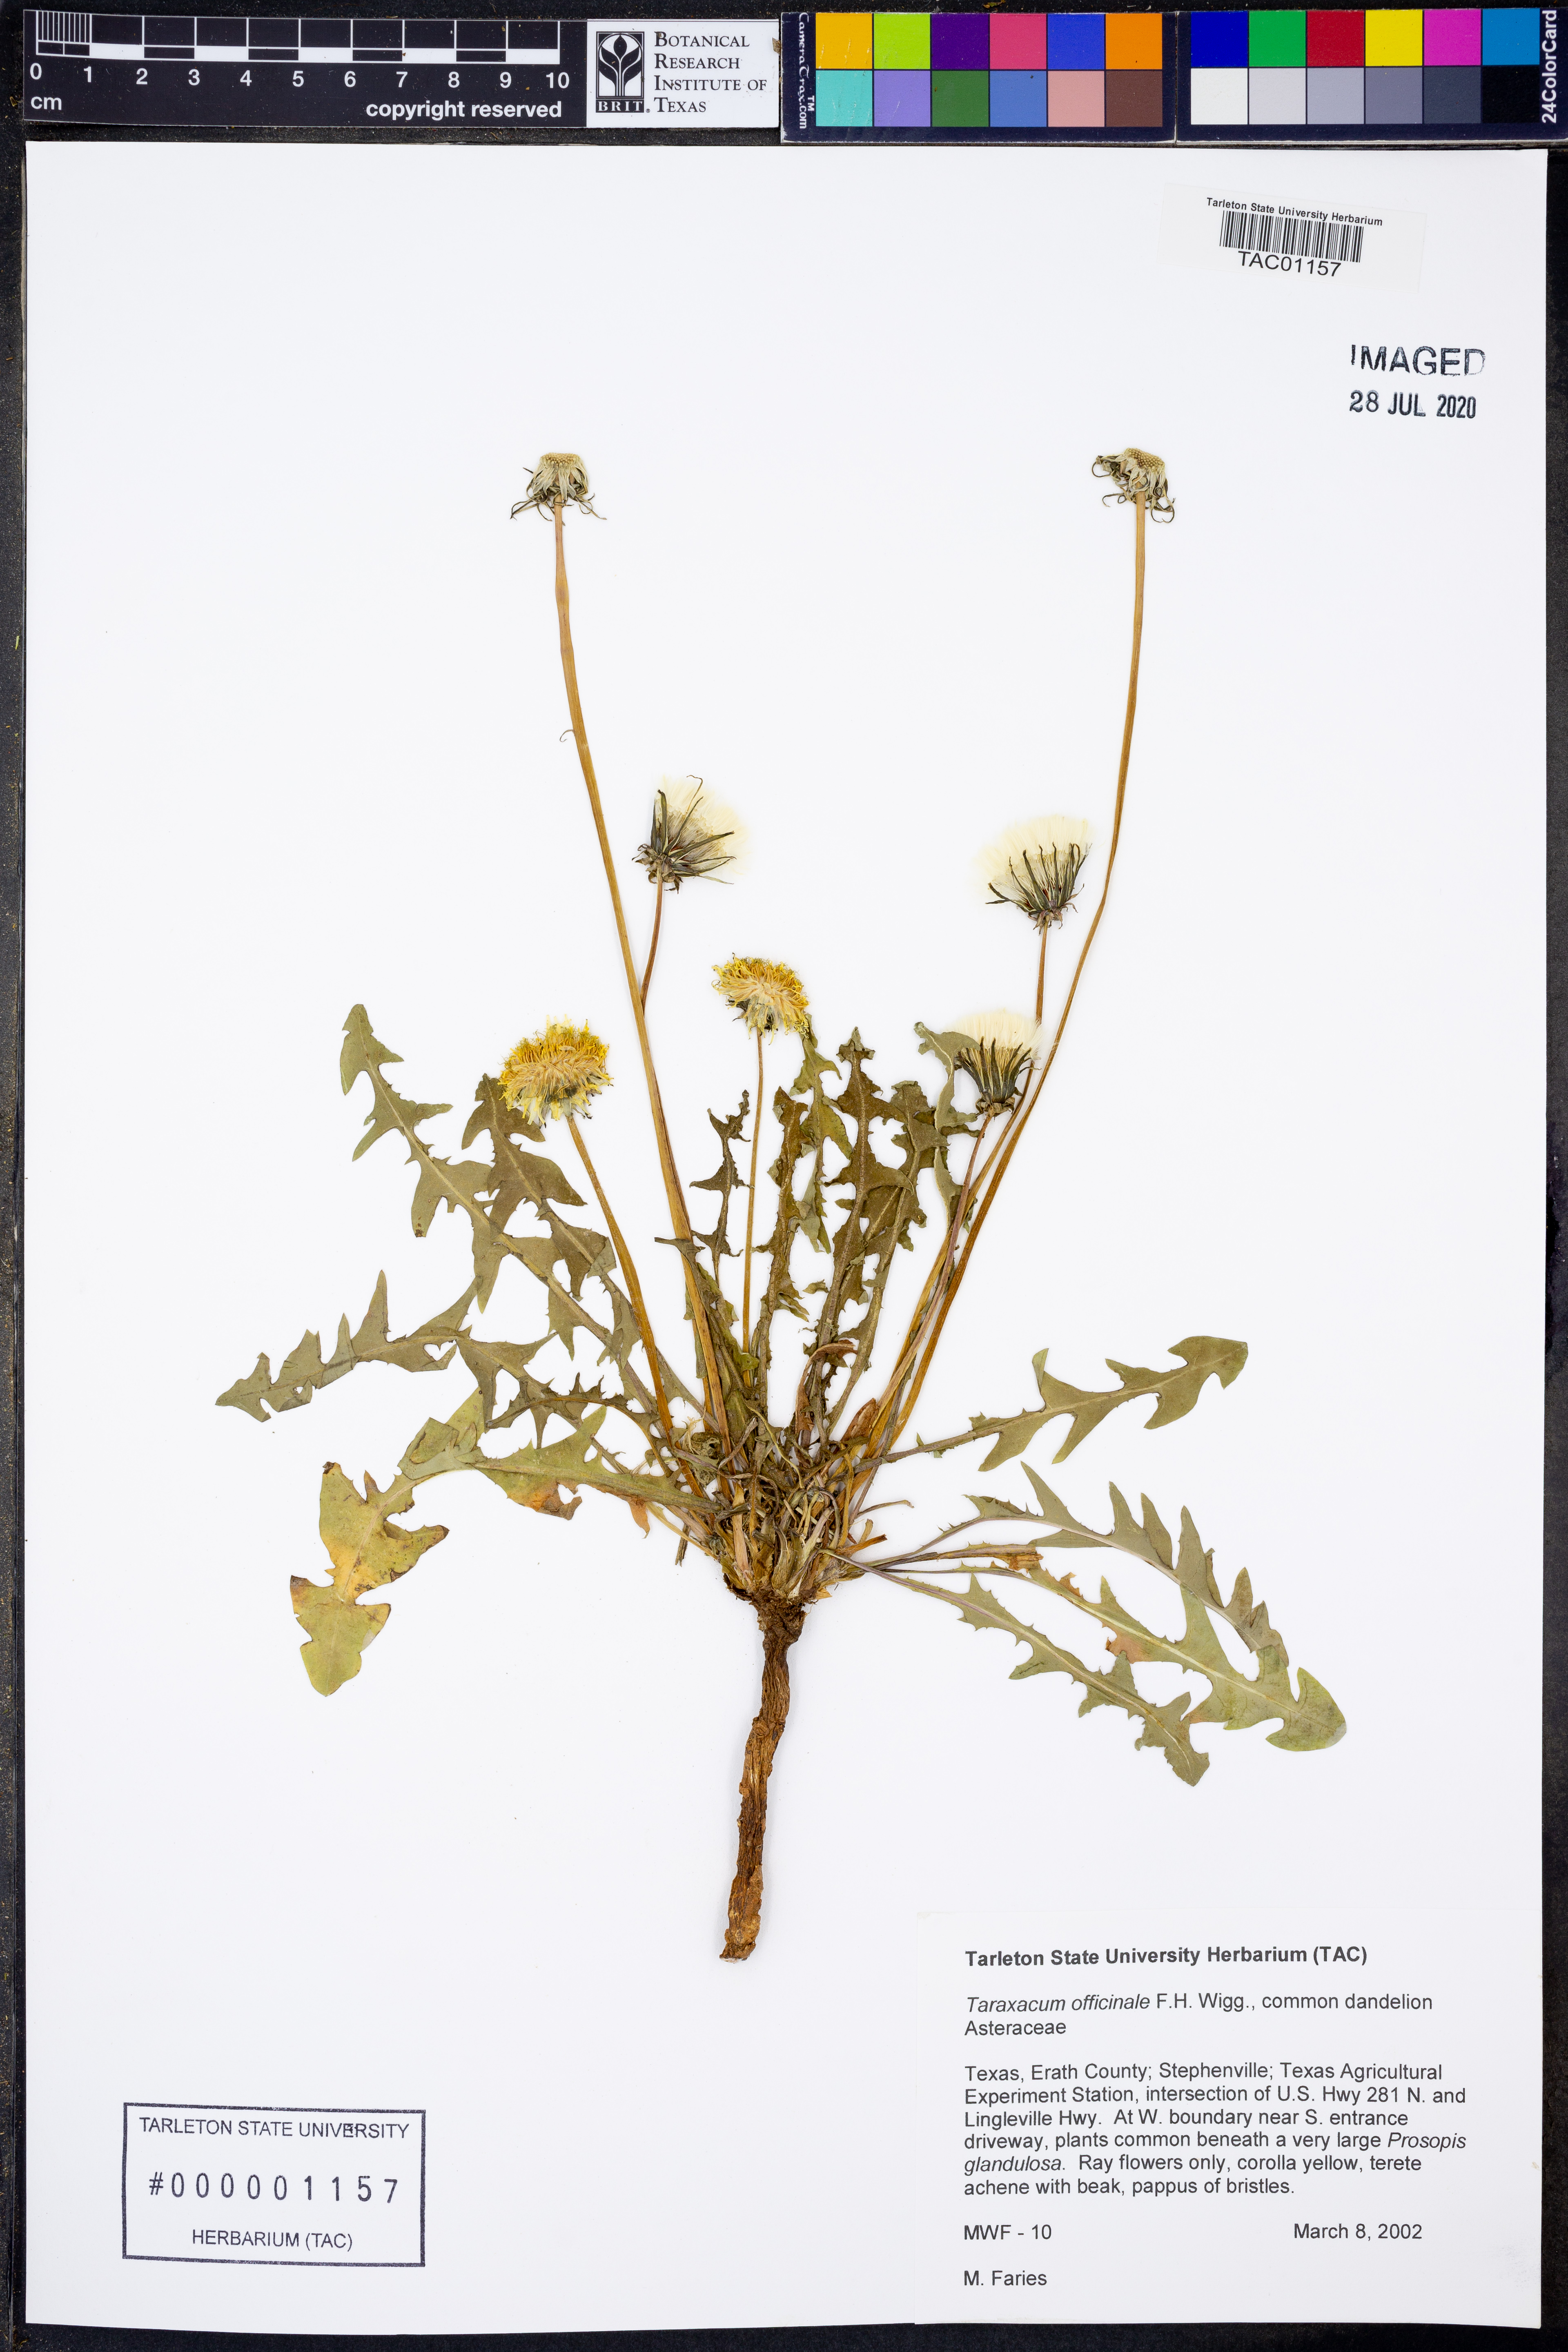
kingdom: Plantae
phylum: Tracheophyta
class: Magnoliopsida
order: Asterales
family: Asteraceae
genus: Taraxacum
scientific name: Taraxacum officinale
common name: Common dandelion
